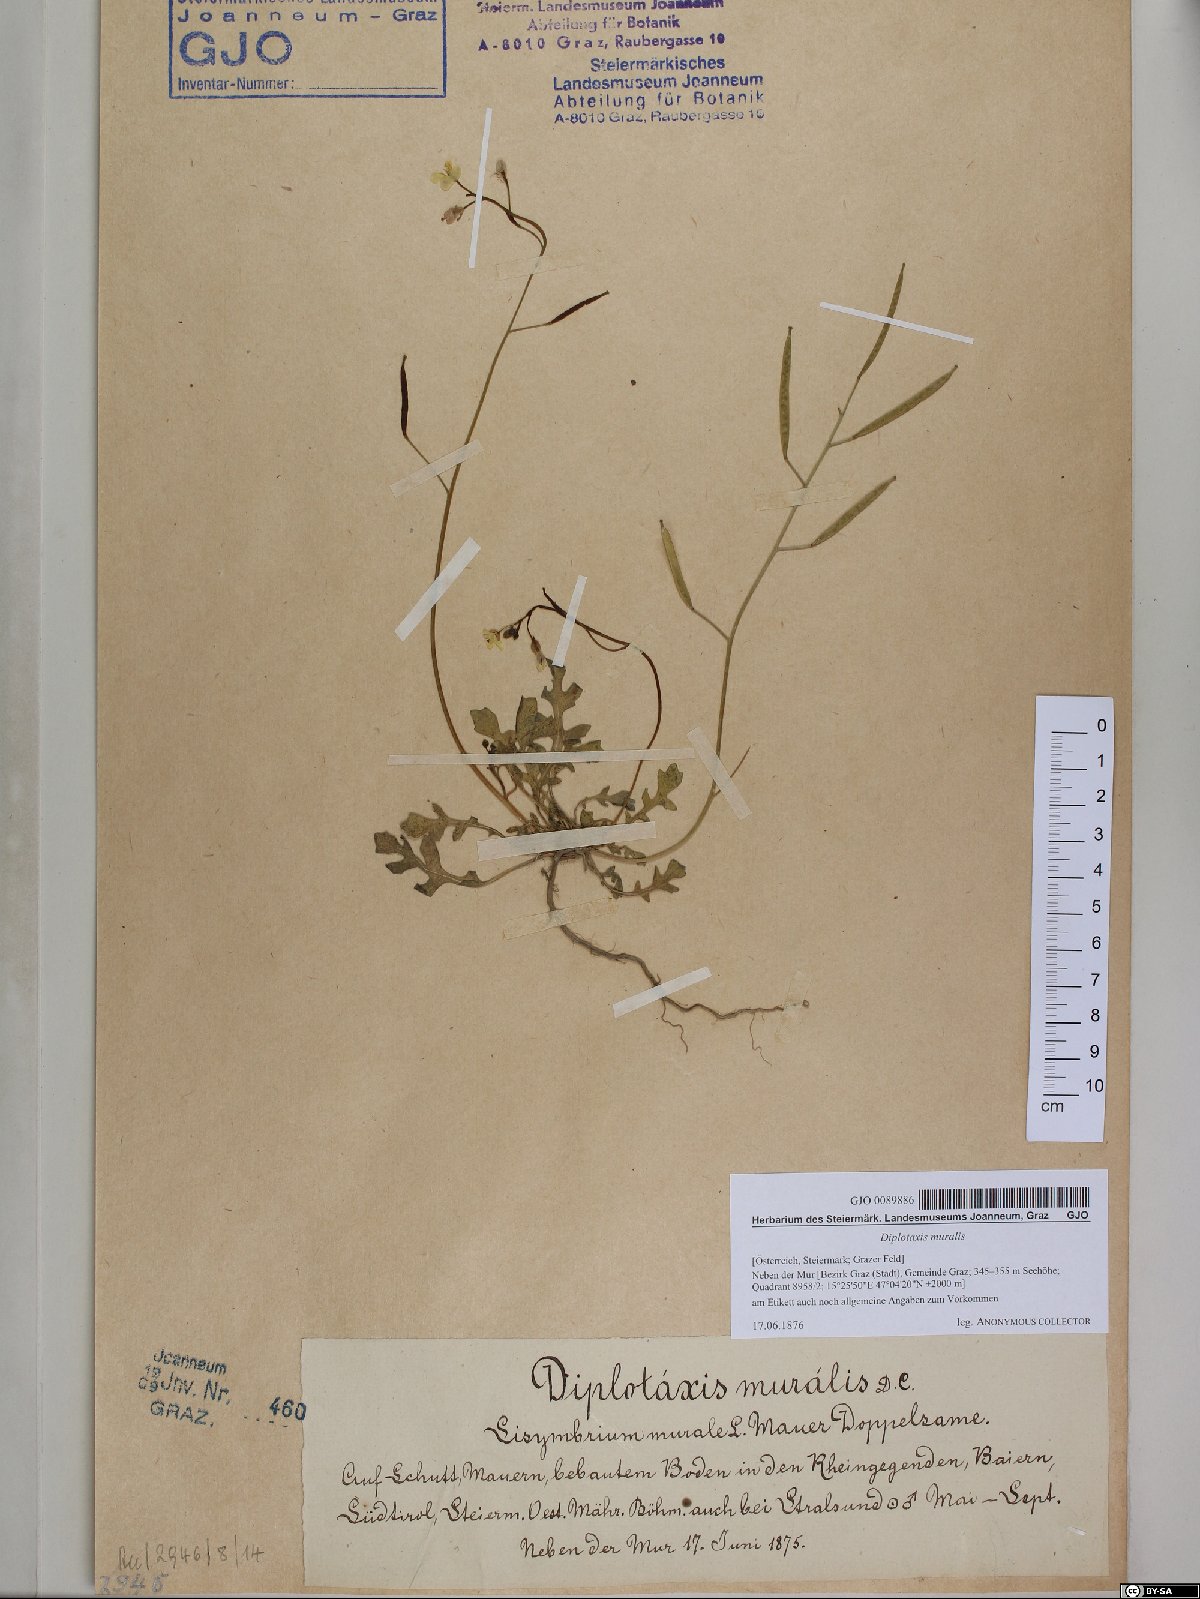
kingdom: Plantae
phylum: Tracheophyta
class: Magnoliopsida
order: Brassicales
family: Brassicaceae
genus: Diplotaxis
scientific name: Diplotaxis muralis
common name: Annual wall-rocket
